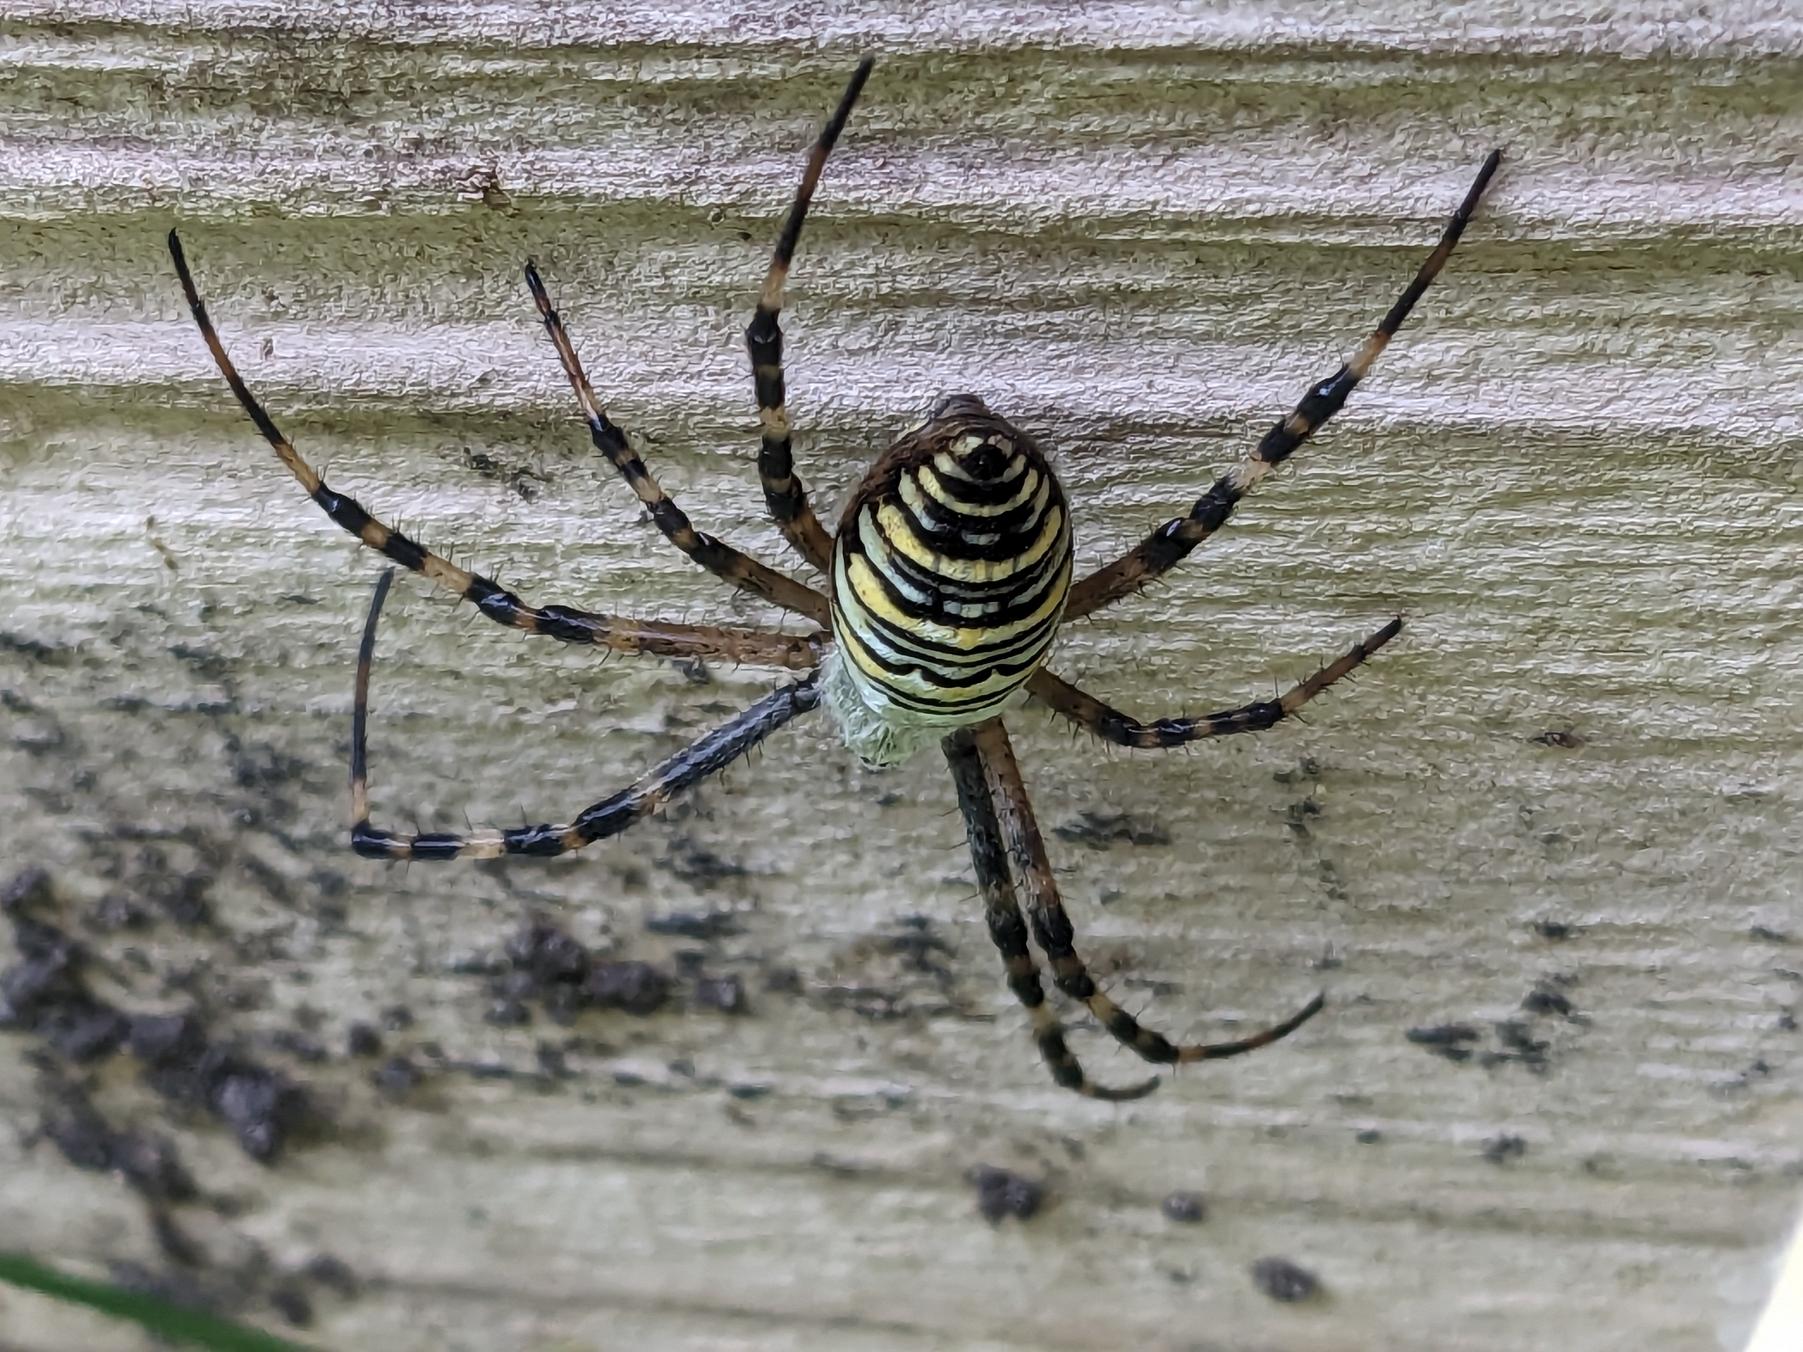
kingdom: Animalia
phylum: Arthropoda
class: Arachnida
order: Araneae
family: Araneidae
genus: Argiope
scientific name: Argiope bruennichi
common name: Hvepseedderkop
